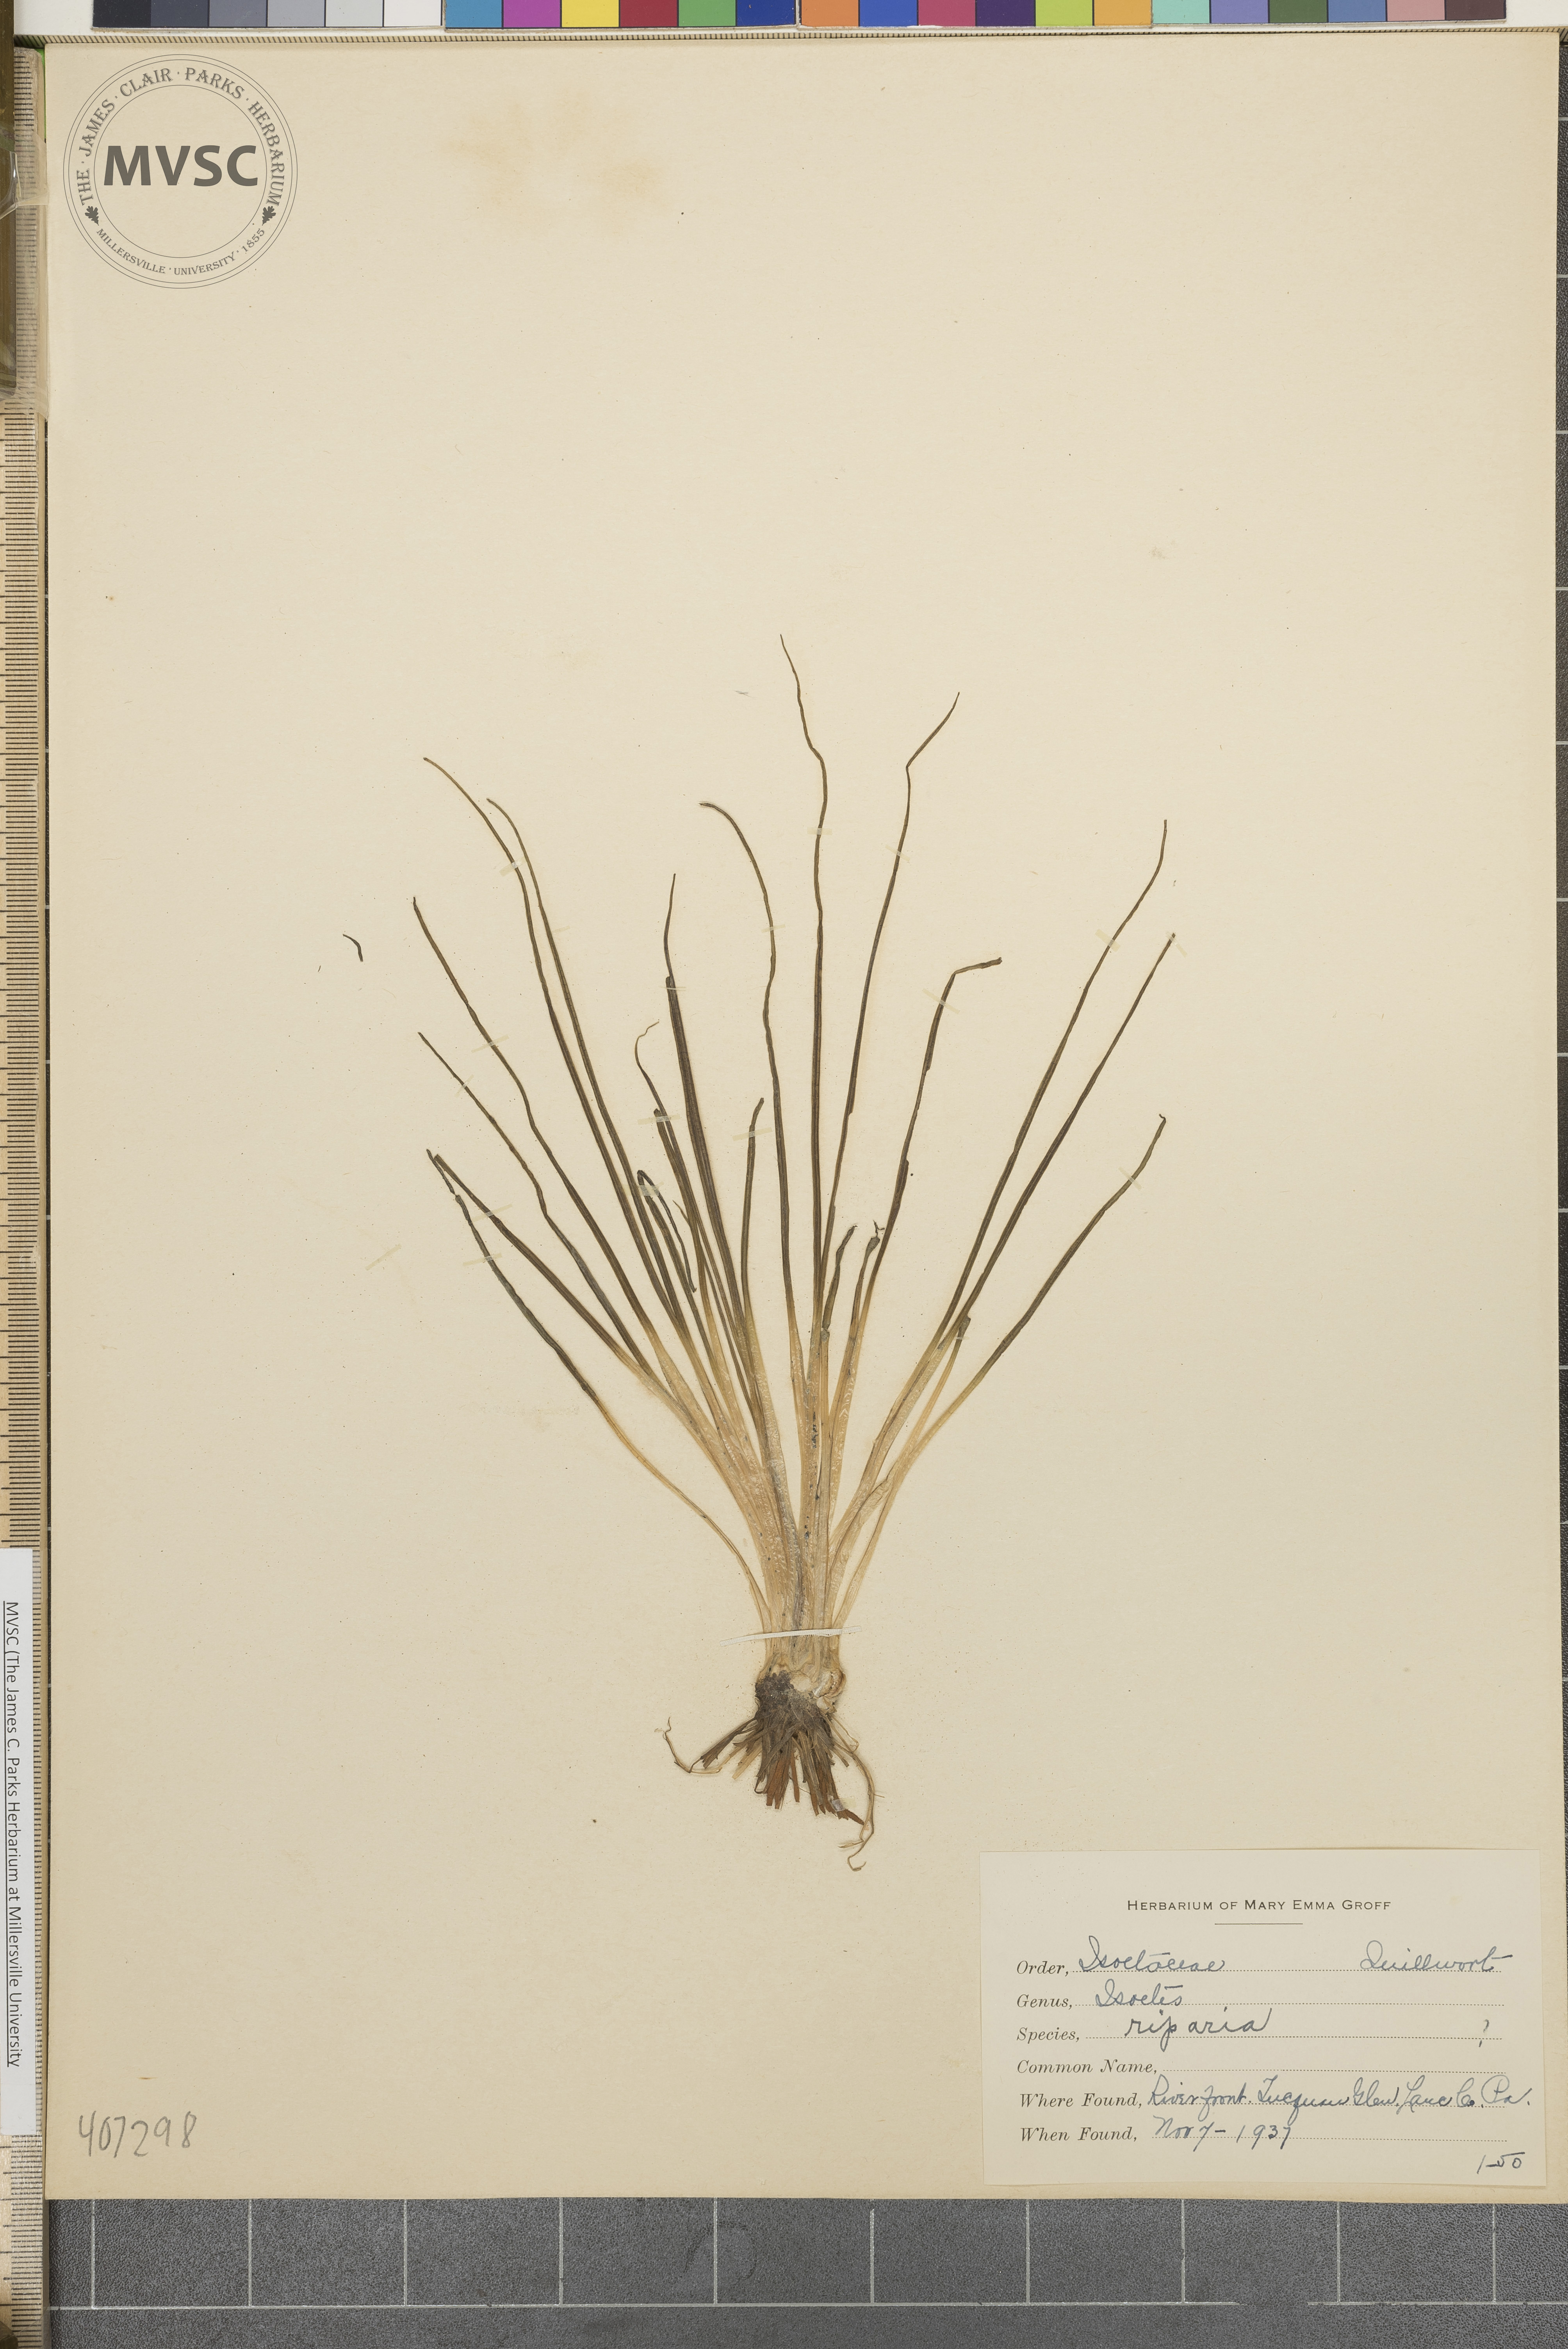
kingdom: Plantae
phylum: Tracheophyta
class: Lycopodiopsida
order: Isoetales
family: Isoetaceae
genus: Isoetes
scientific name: Isoetes riparia
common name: Riverbank quillwort
